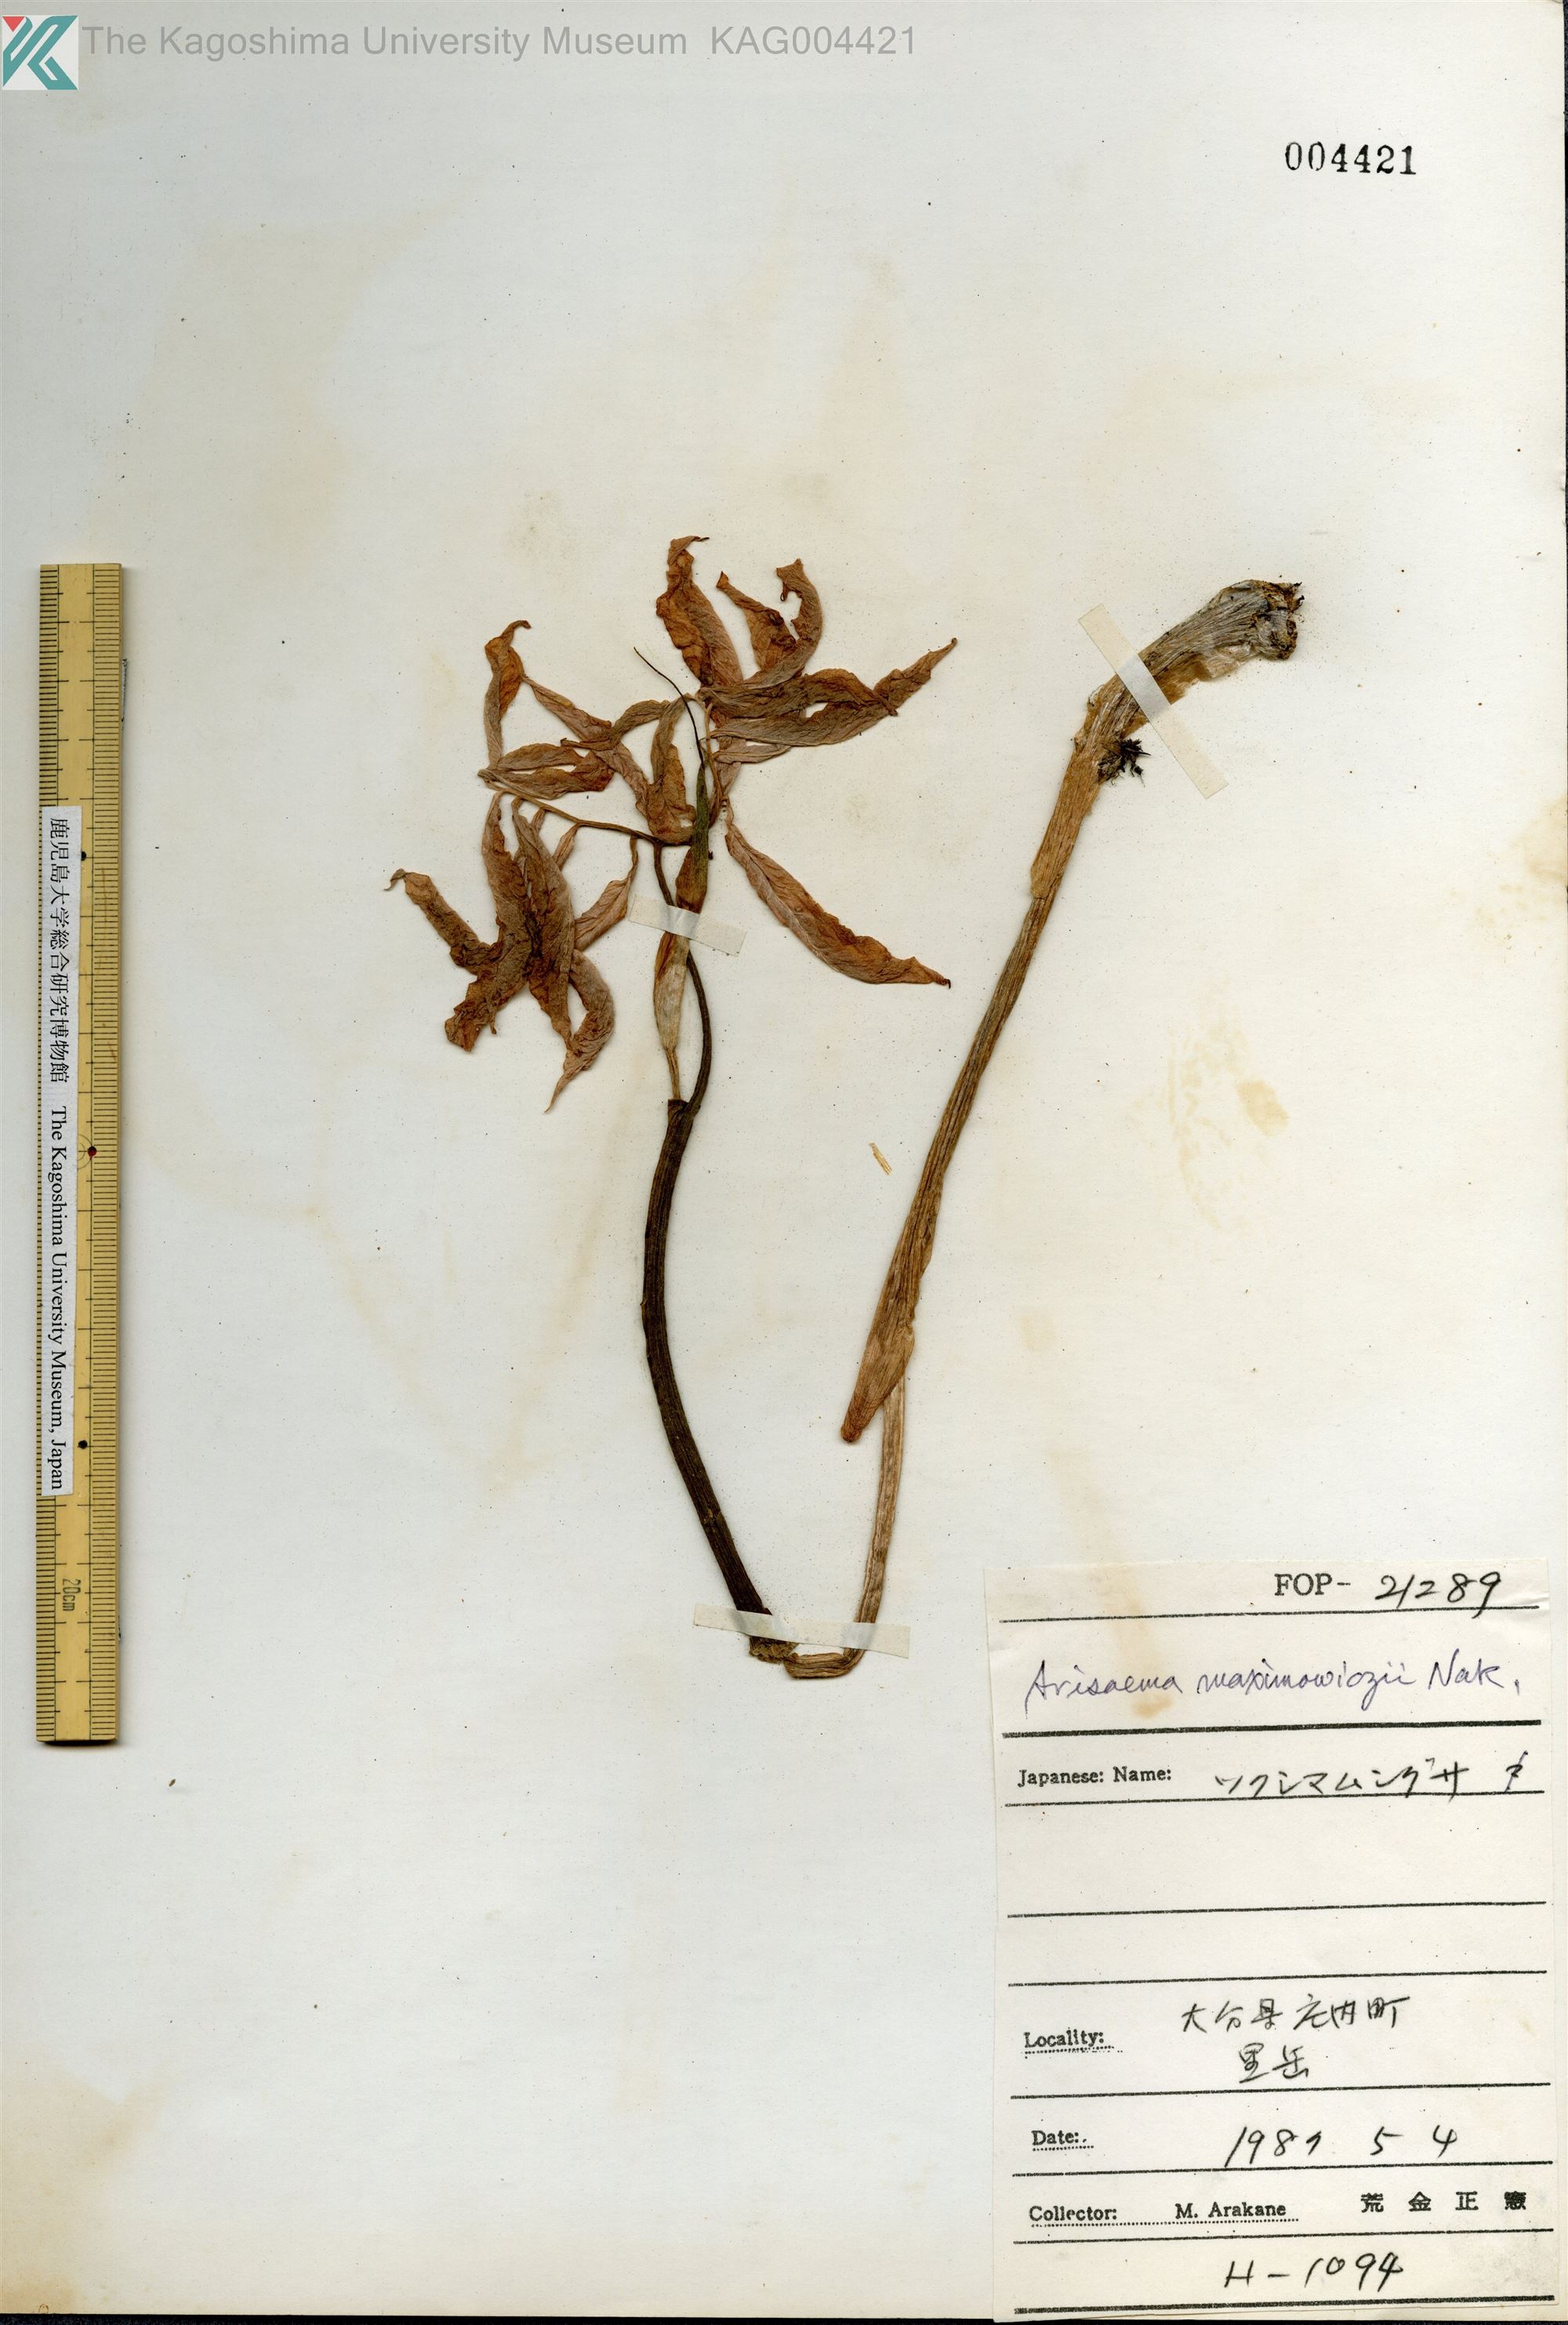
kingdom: Plantae
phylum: Tracheophyta
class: Liliopsida
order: Alismatales
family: Araceae
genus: Arisaema
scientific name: Arisaema maximowiczii
